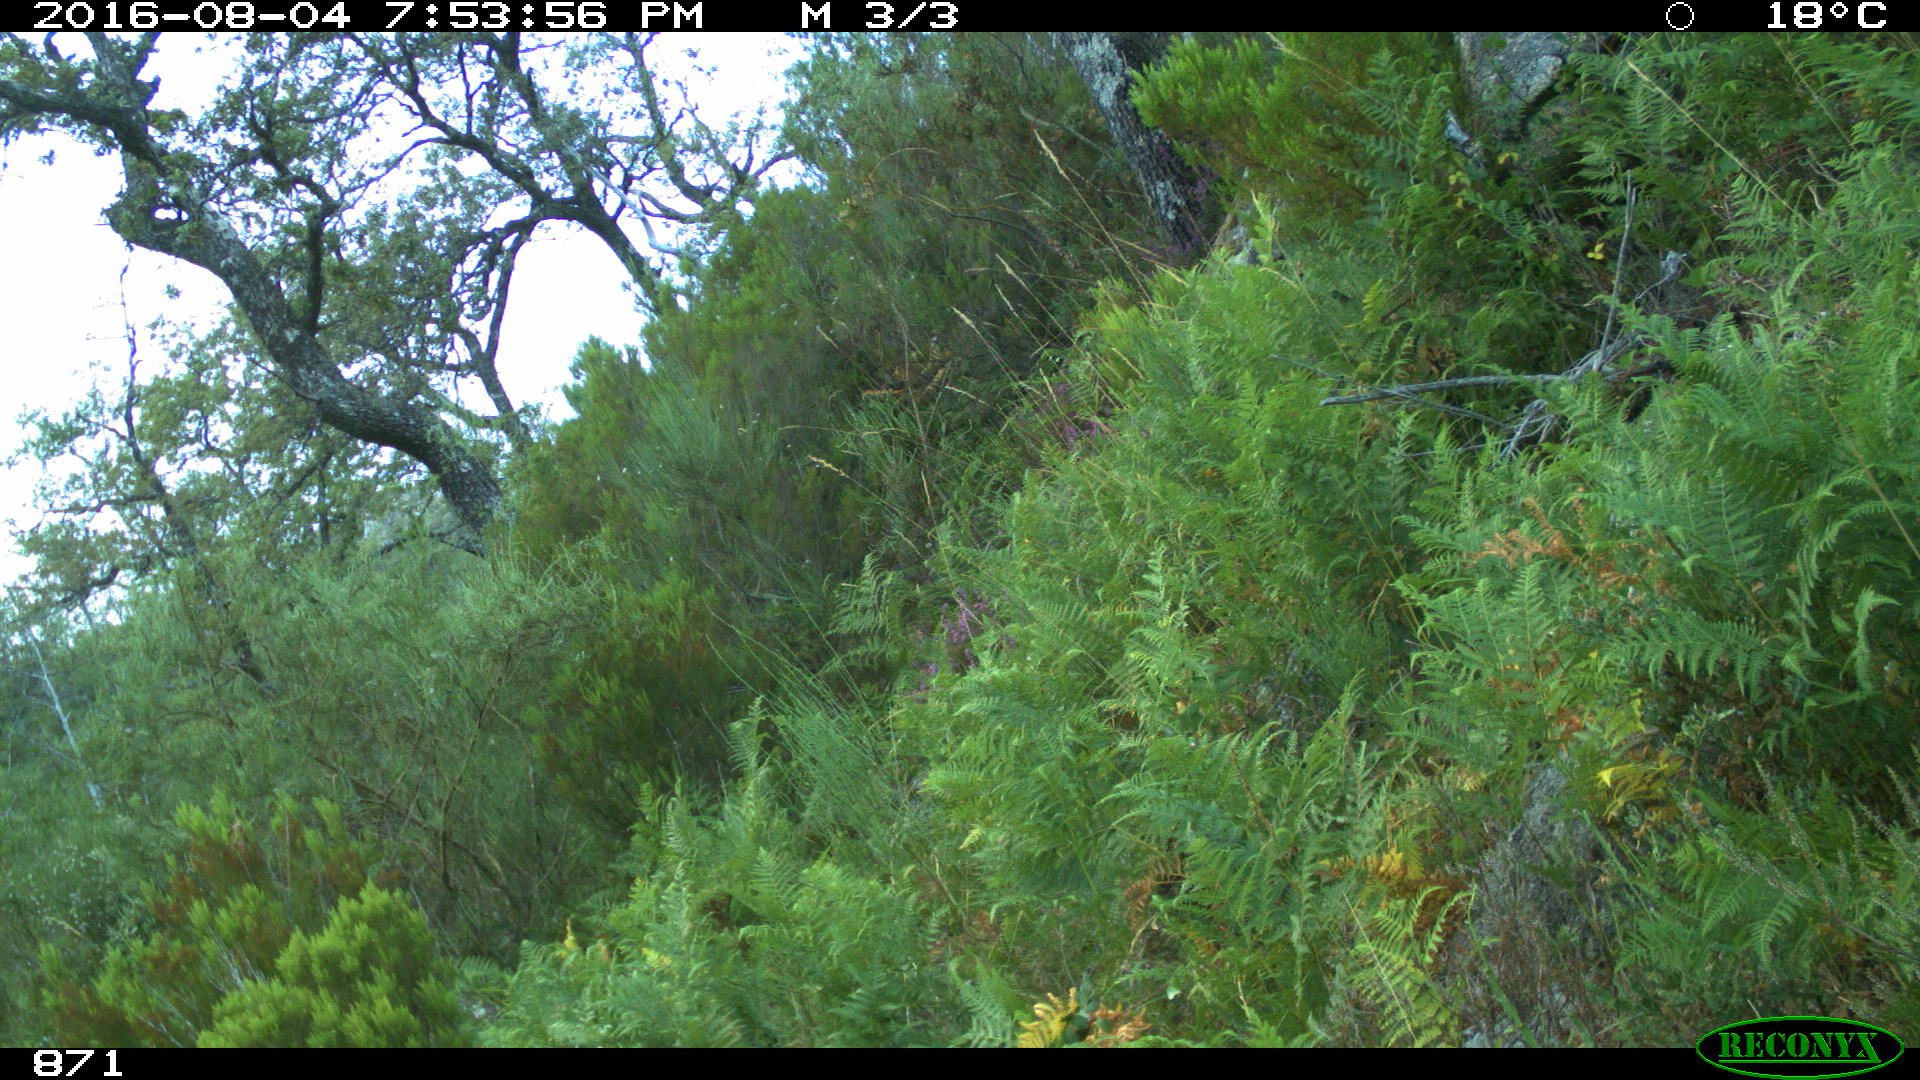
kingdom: Animalia
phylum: Chordata
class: Mammalia
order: Carnivora
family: Canidae
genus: Canis
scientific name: Canis lupus
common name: Gray wolf
